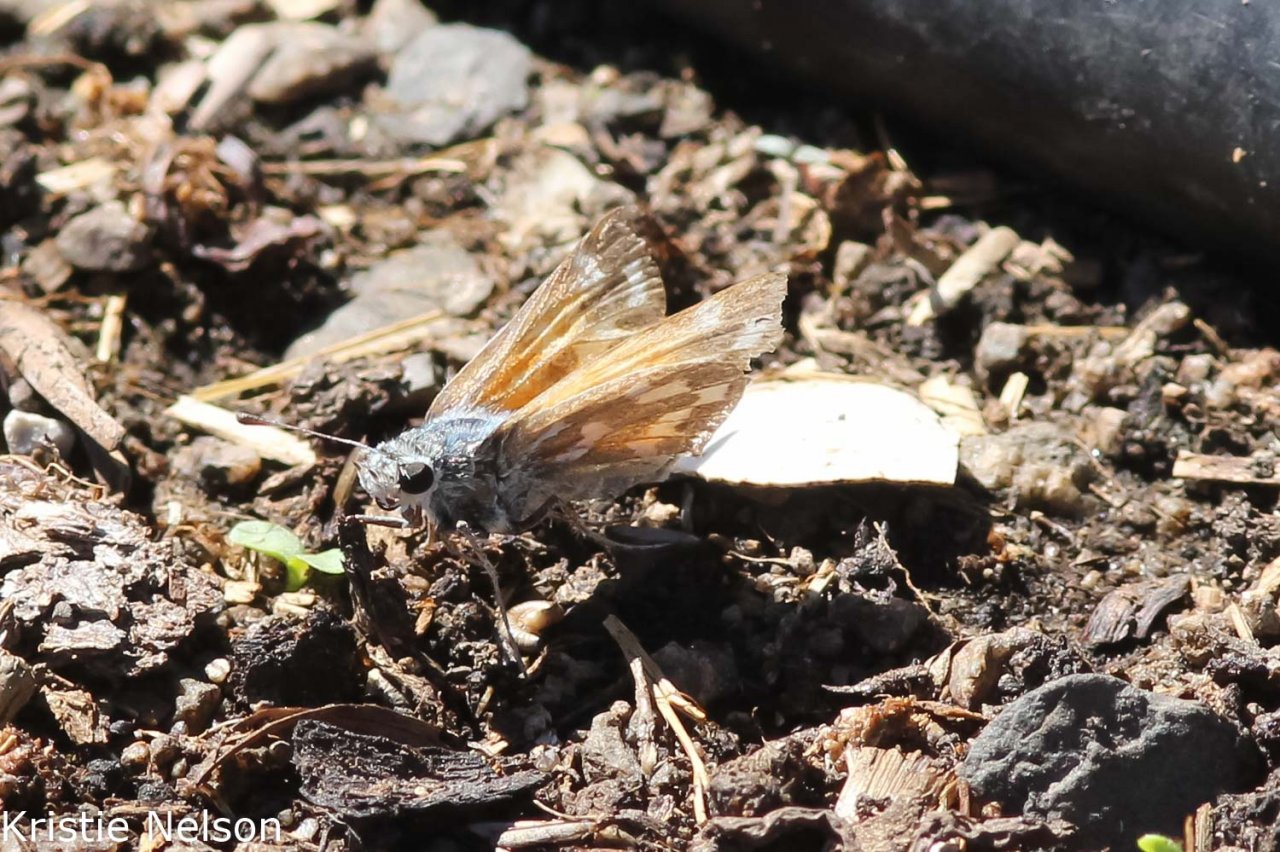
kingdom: Animalia
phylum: Arthropoda
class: Insecta
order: Lepidoptera
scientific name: Lepidoptera
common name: Butterflies
